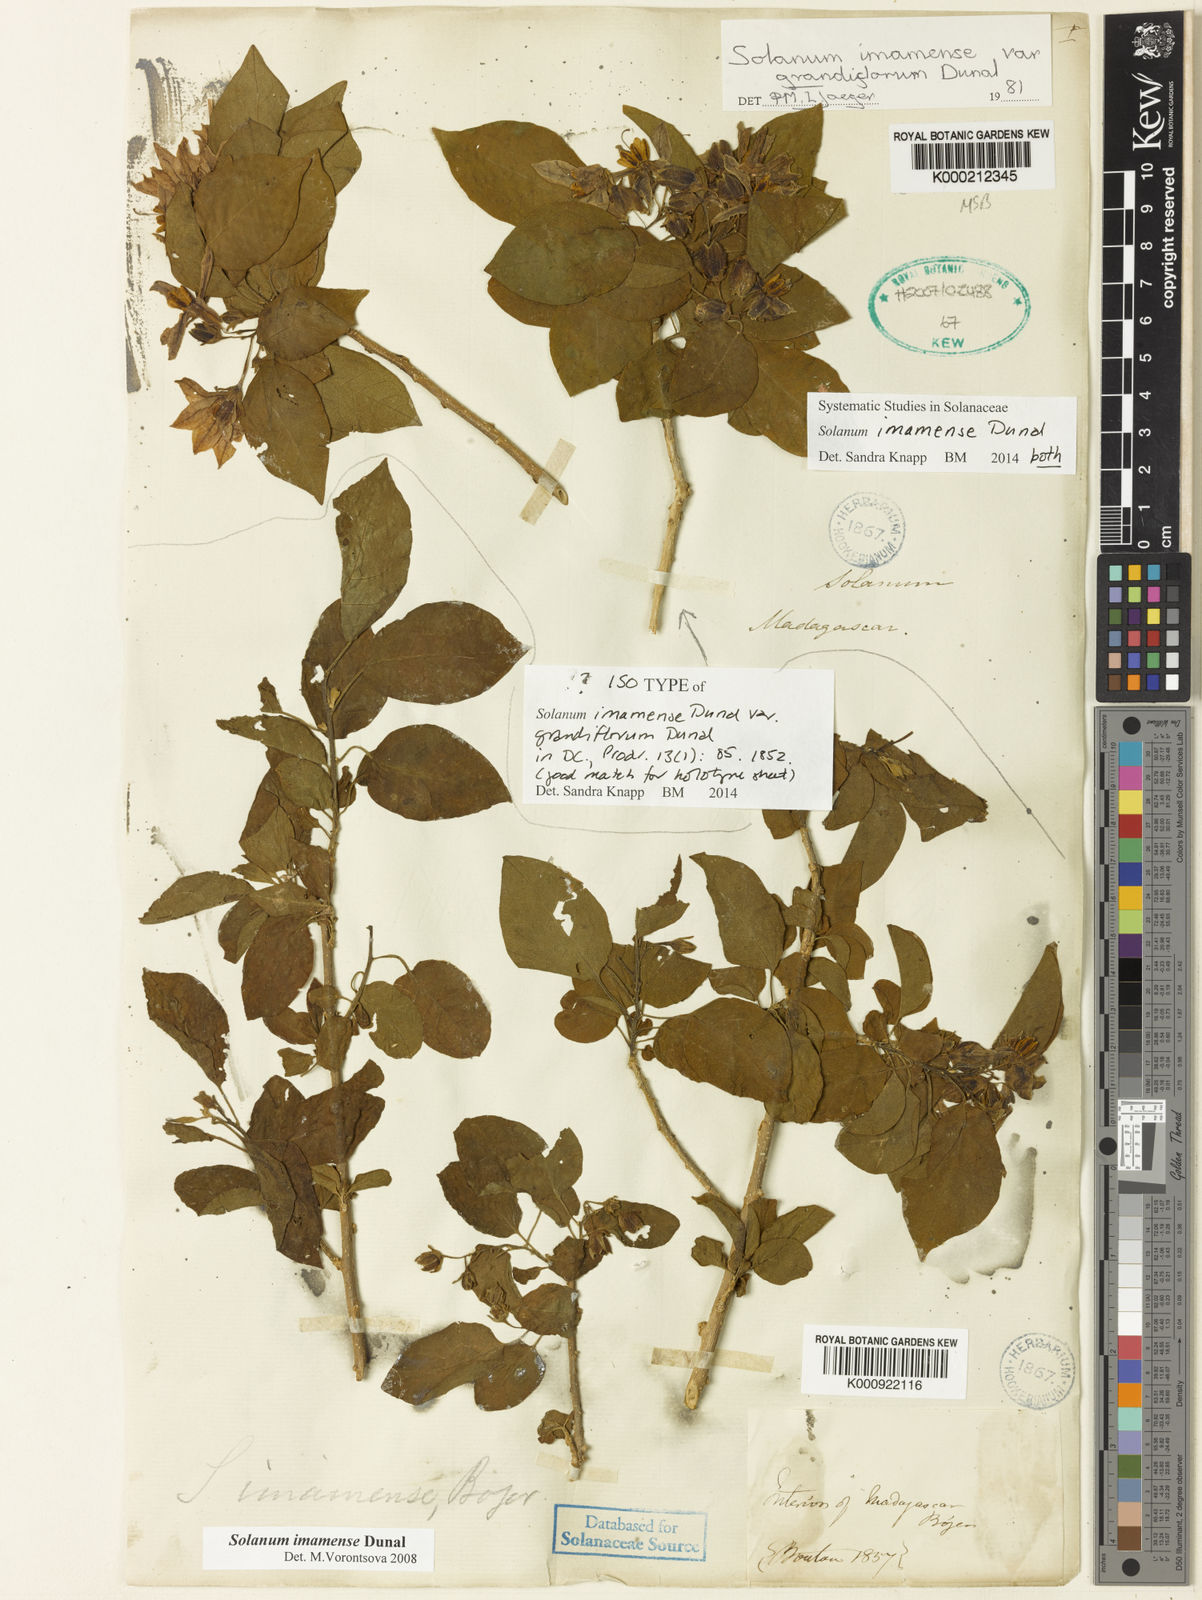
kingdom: Plantae
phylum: Tracheophyta
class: Magnoliopsida
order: Solanales
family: Solanaceae
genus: Solanum
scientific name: Solanum imamense
